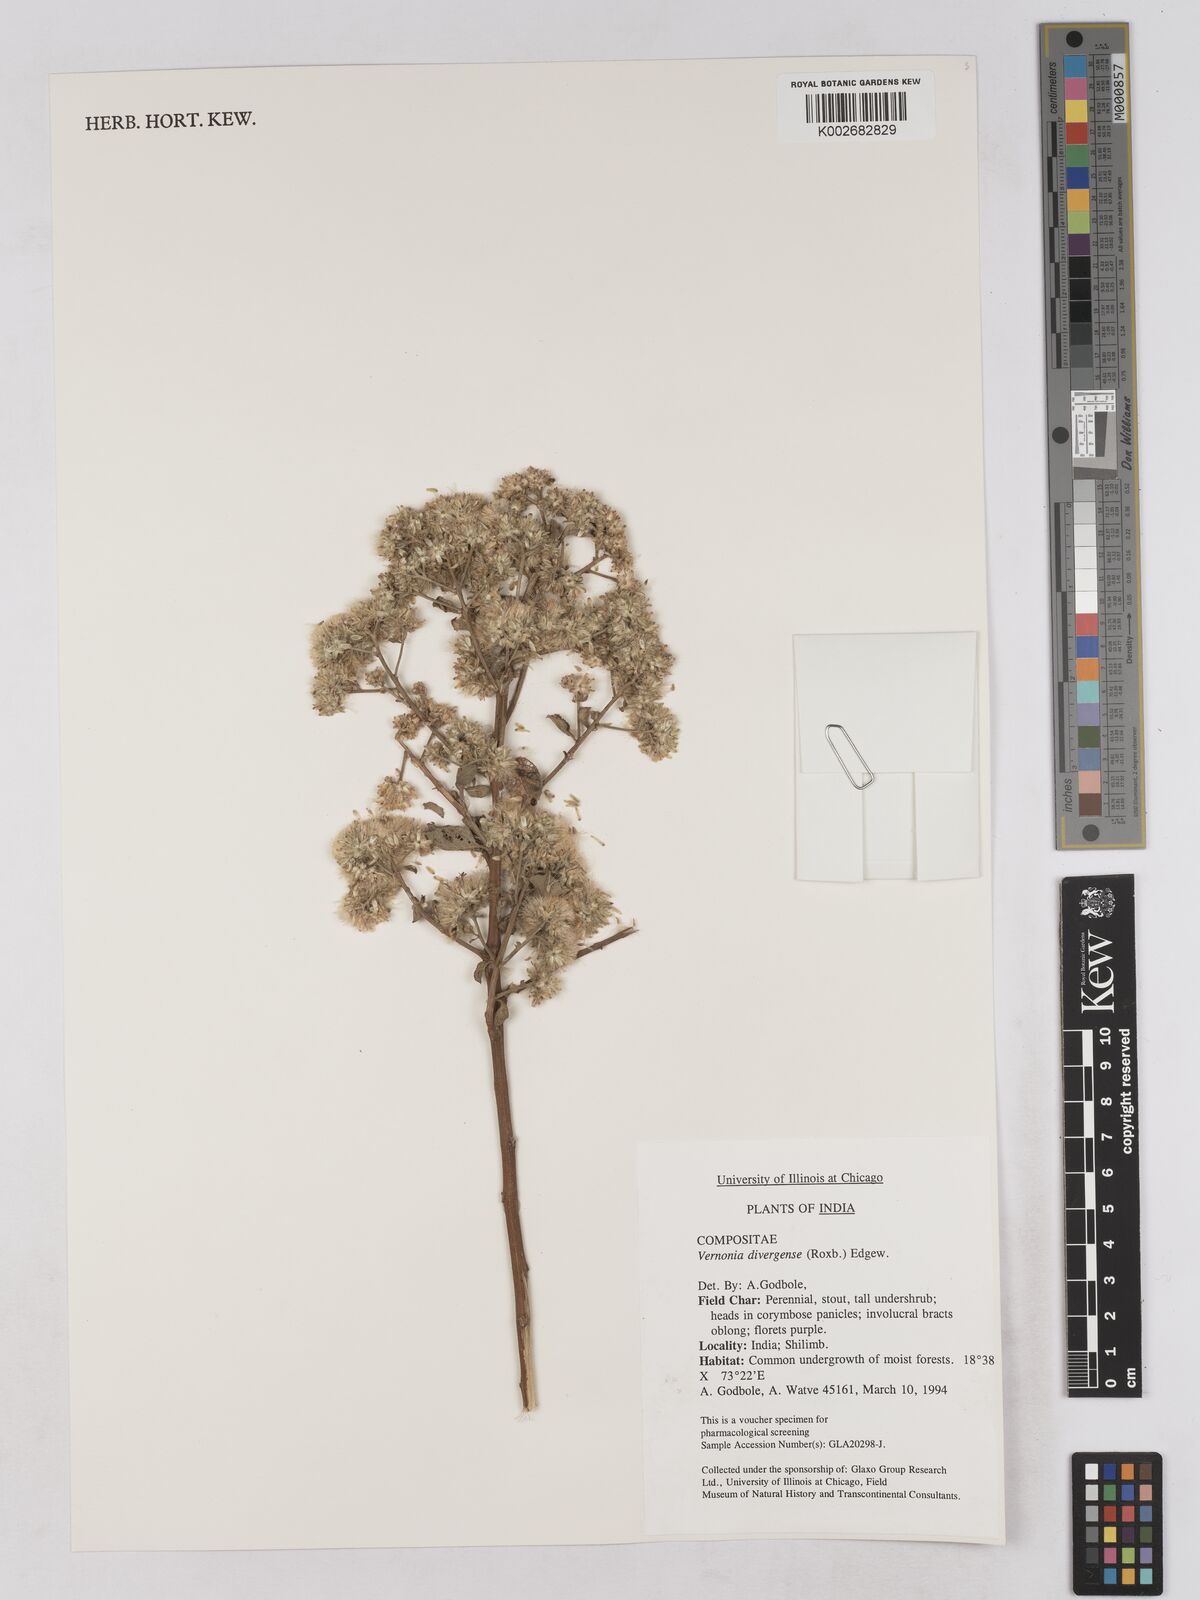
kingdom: Plantae
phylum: Tracheophyta
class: Magnoliopsida
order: Asterales
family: Asteraceae
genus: Acilepis
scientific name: Acilepis divergens
